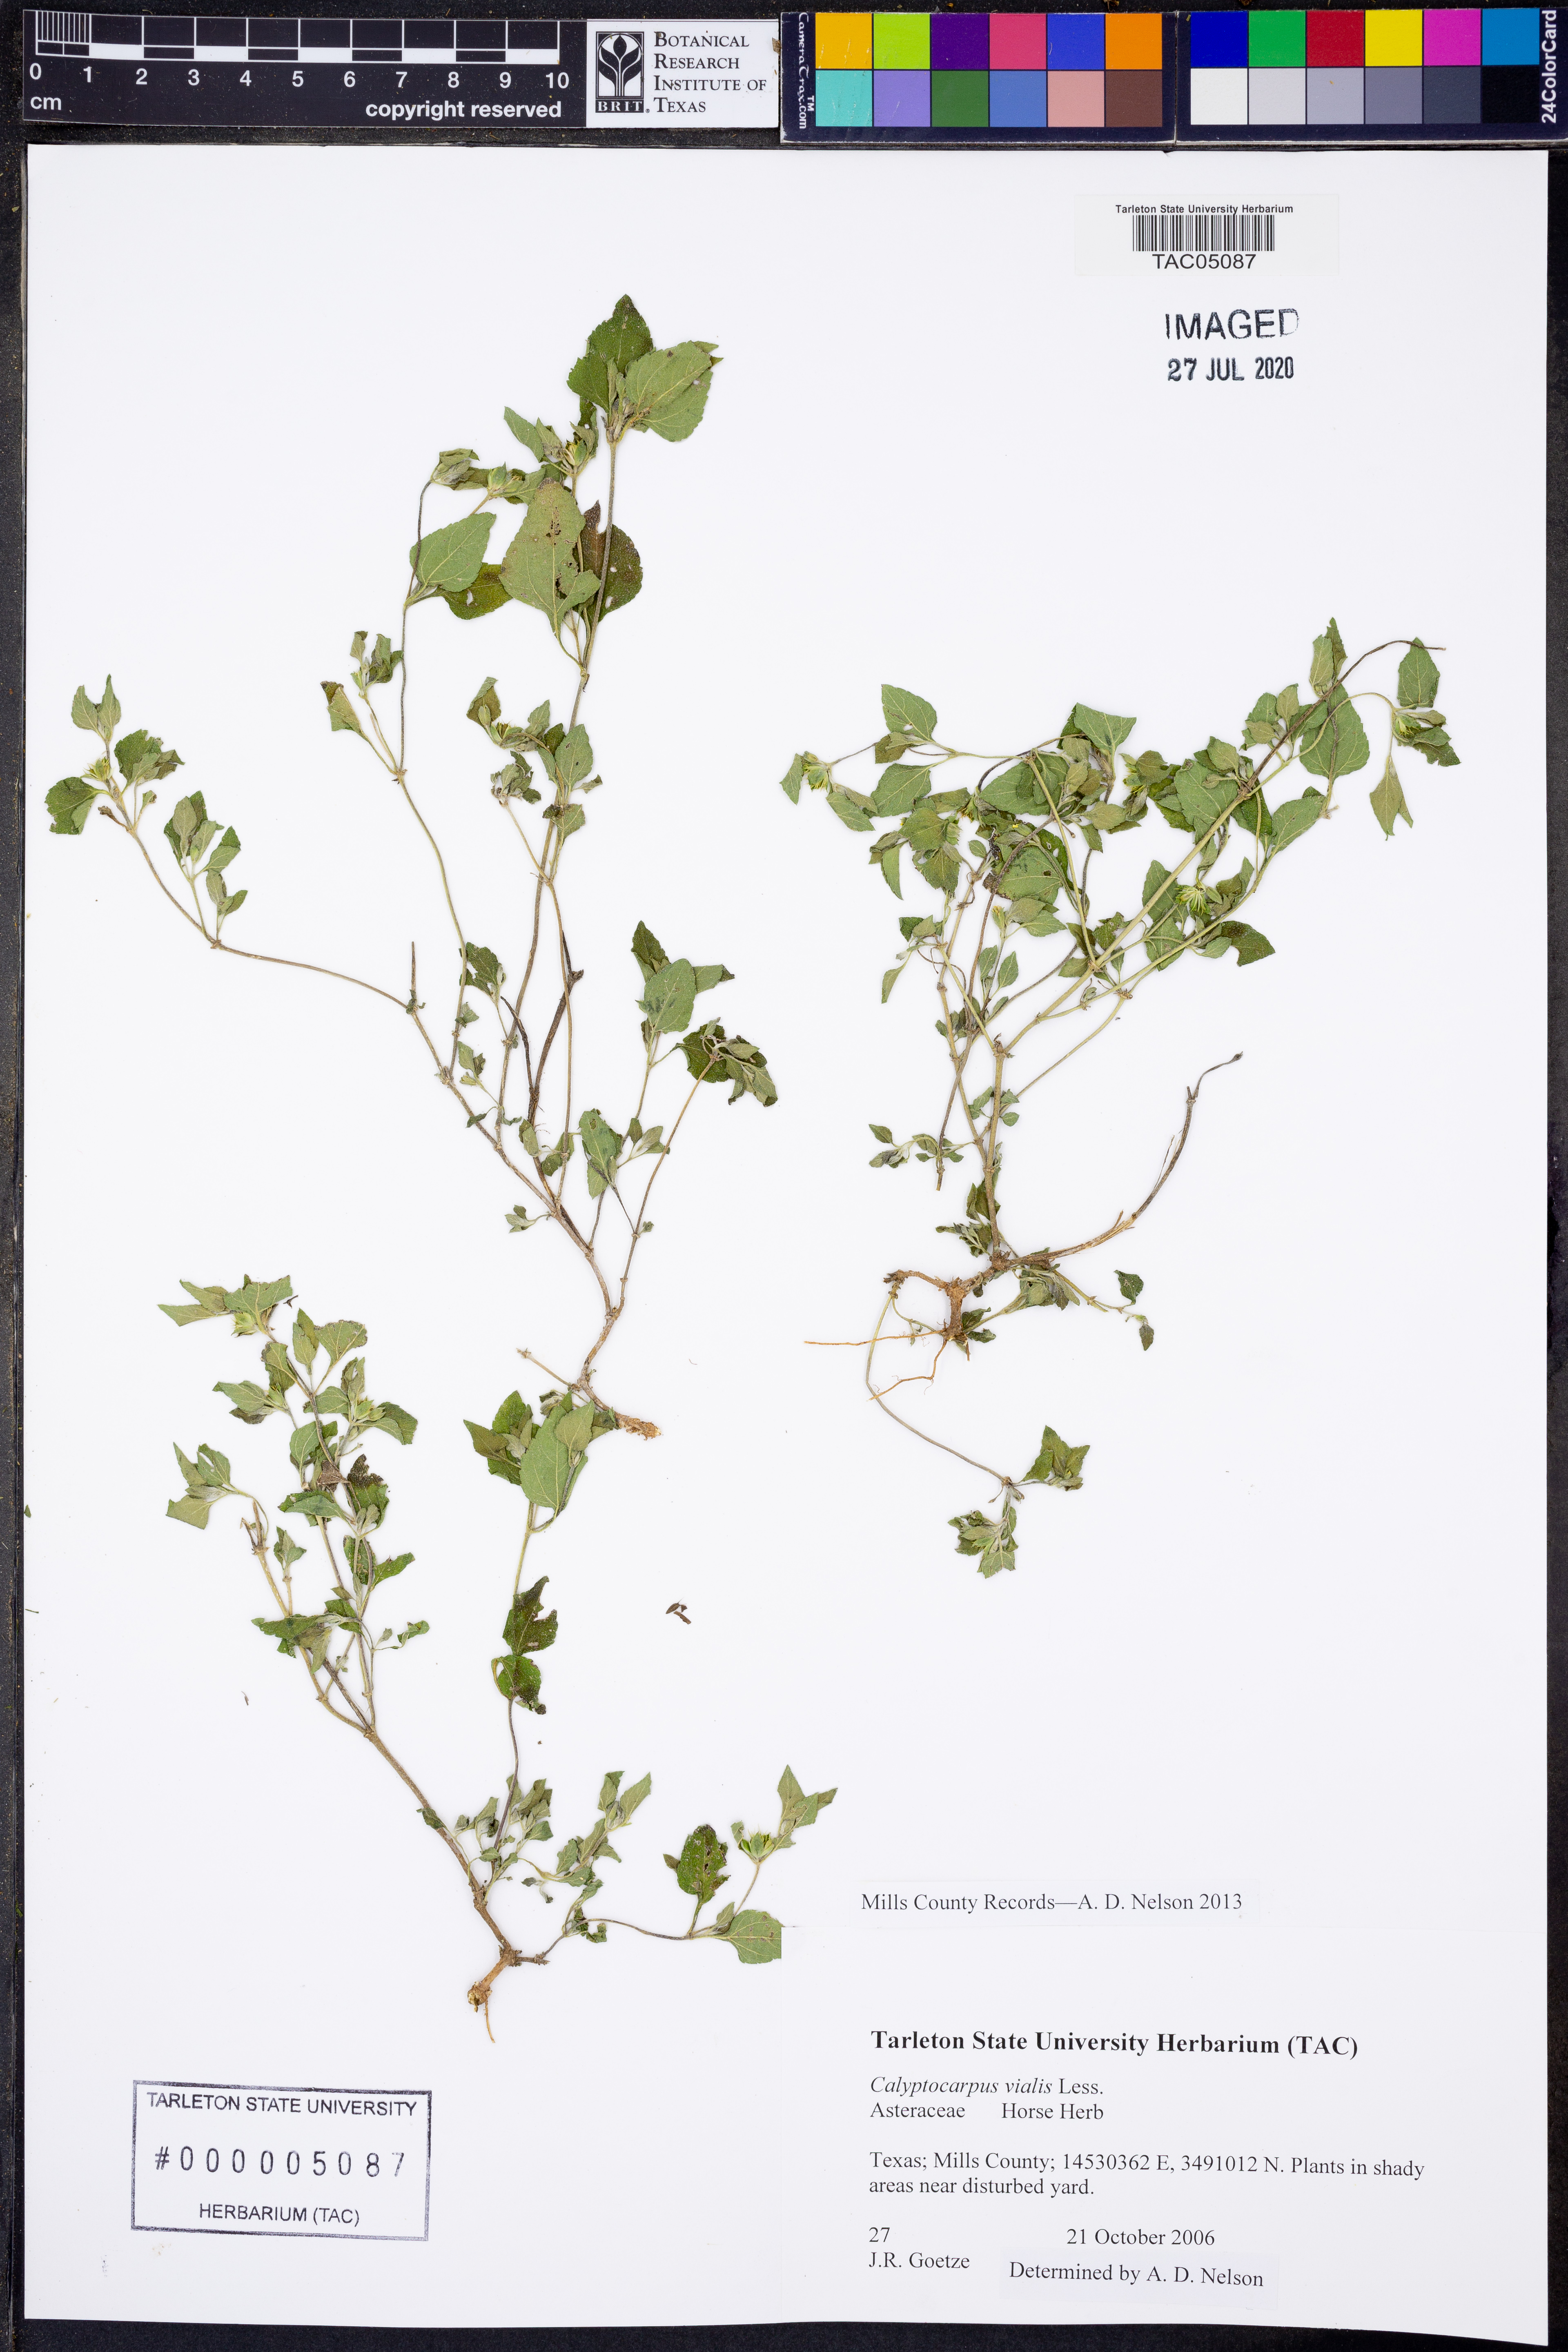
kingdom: Plantae
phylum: Tracheophyta
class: Magnoliopsida
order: Asterales
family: Asteraceae
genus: Calyptocarpus
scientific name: Calyptocarpus vialis
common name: Straggler daisy
